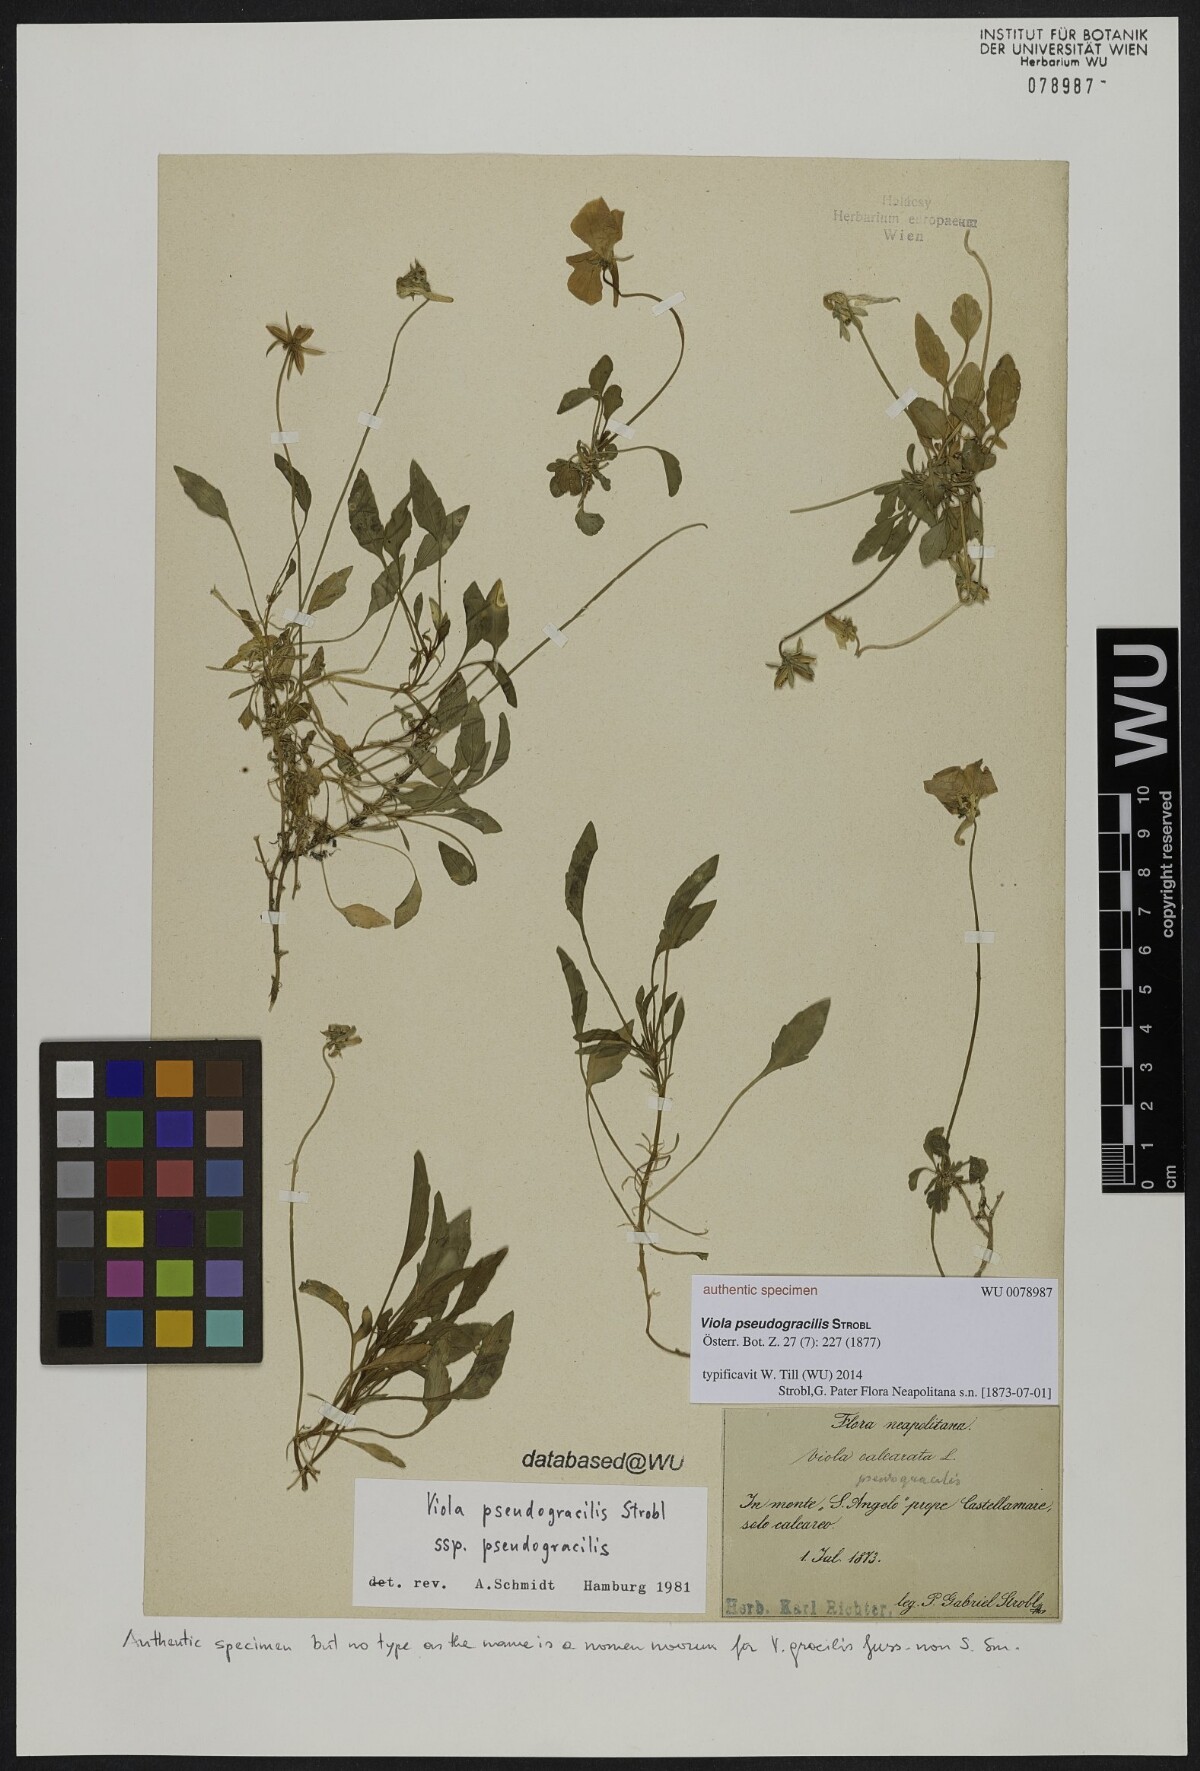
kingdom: Plantae
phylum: Tracheophyta
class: Magnoliopsida
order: Malpighiales
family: Violaceae
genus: Viola
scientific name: Viola pseudogracilis
